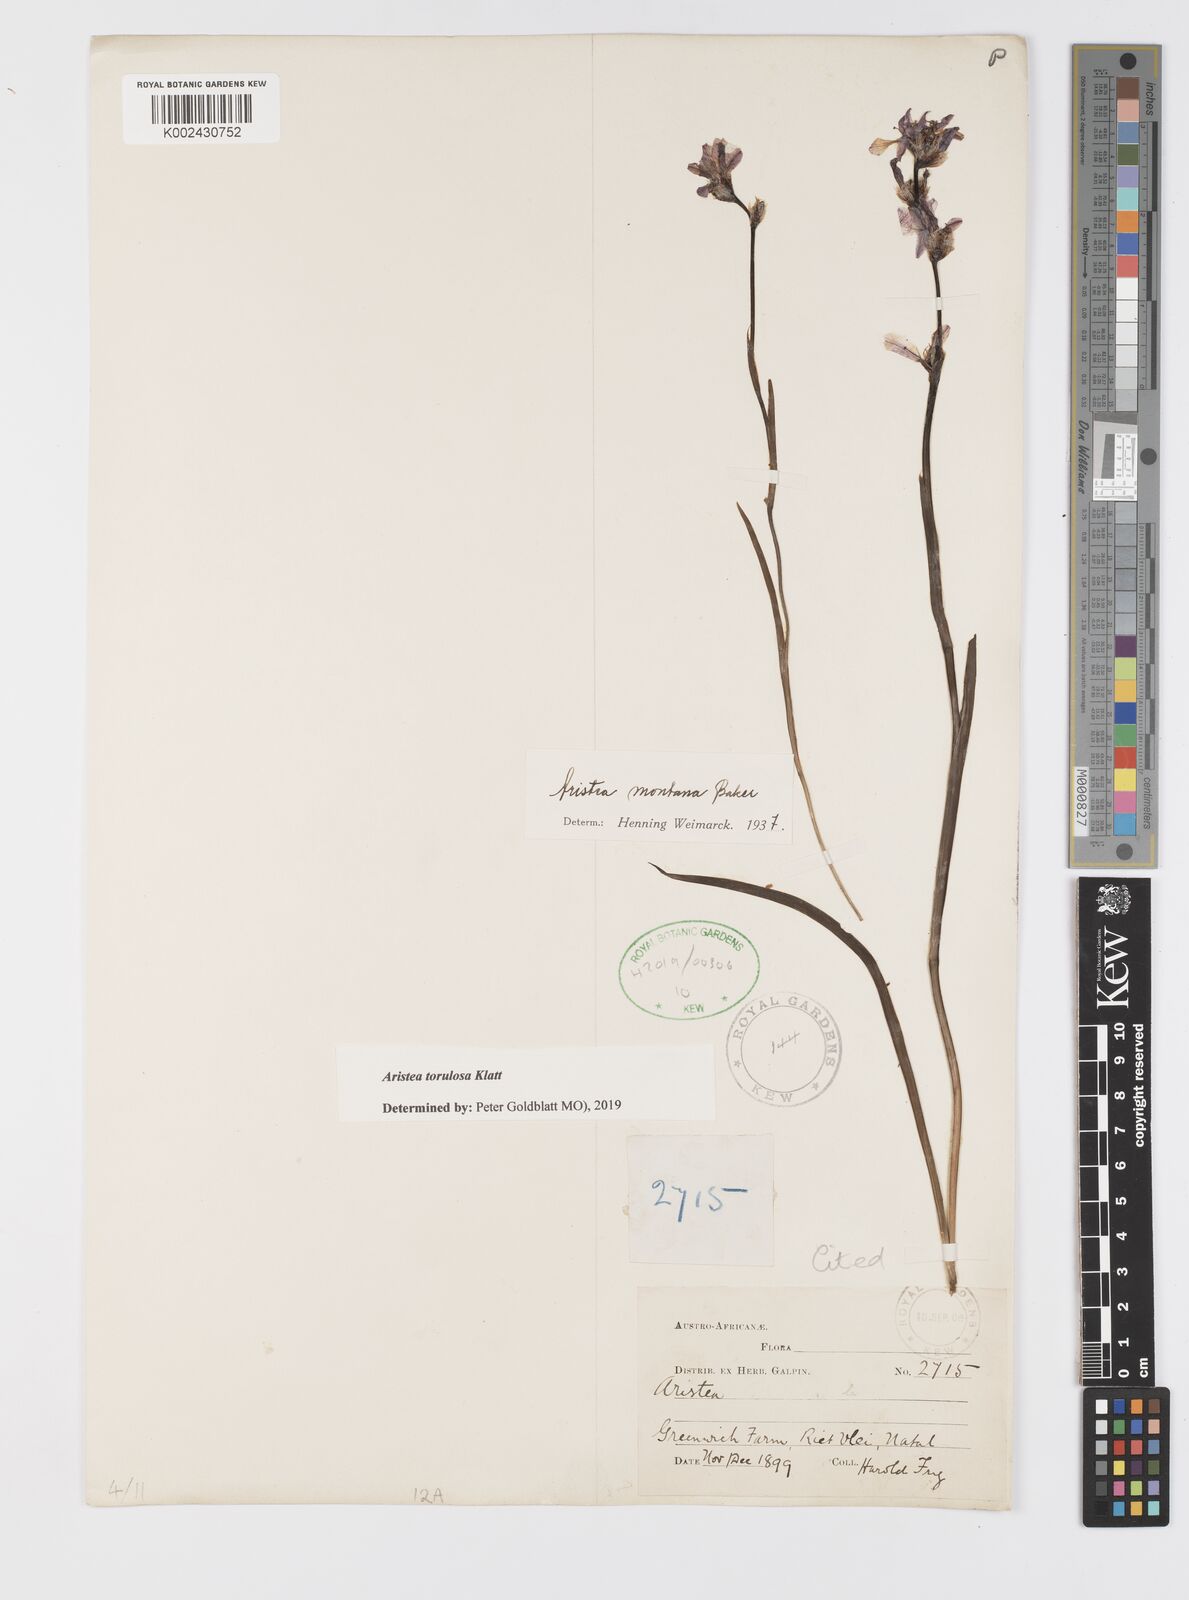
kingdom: Plantae
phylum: Tracheophyta
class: Liliopsida
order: Asparagales
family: Iridaceae
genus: Aristea
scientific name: Aristea torulosa
